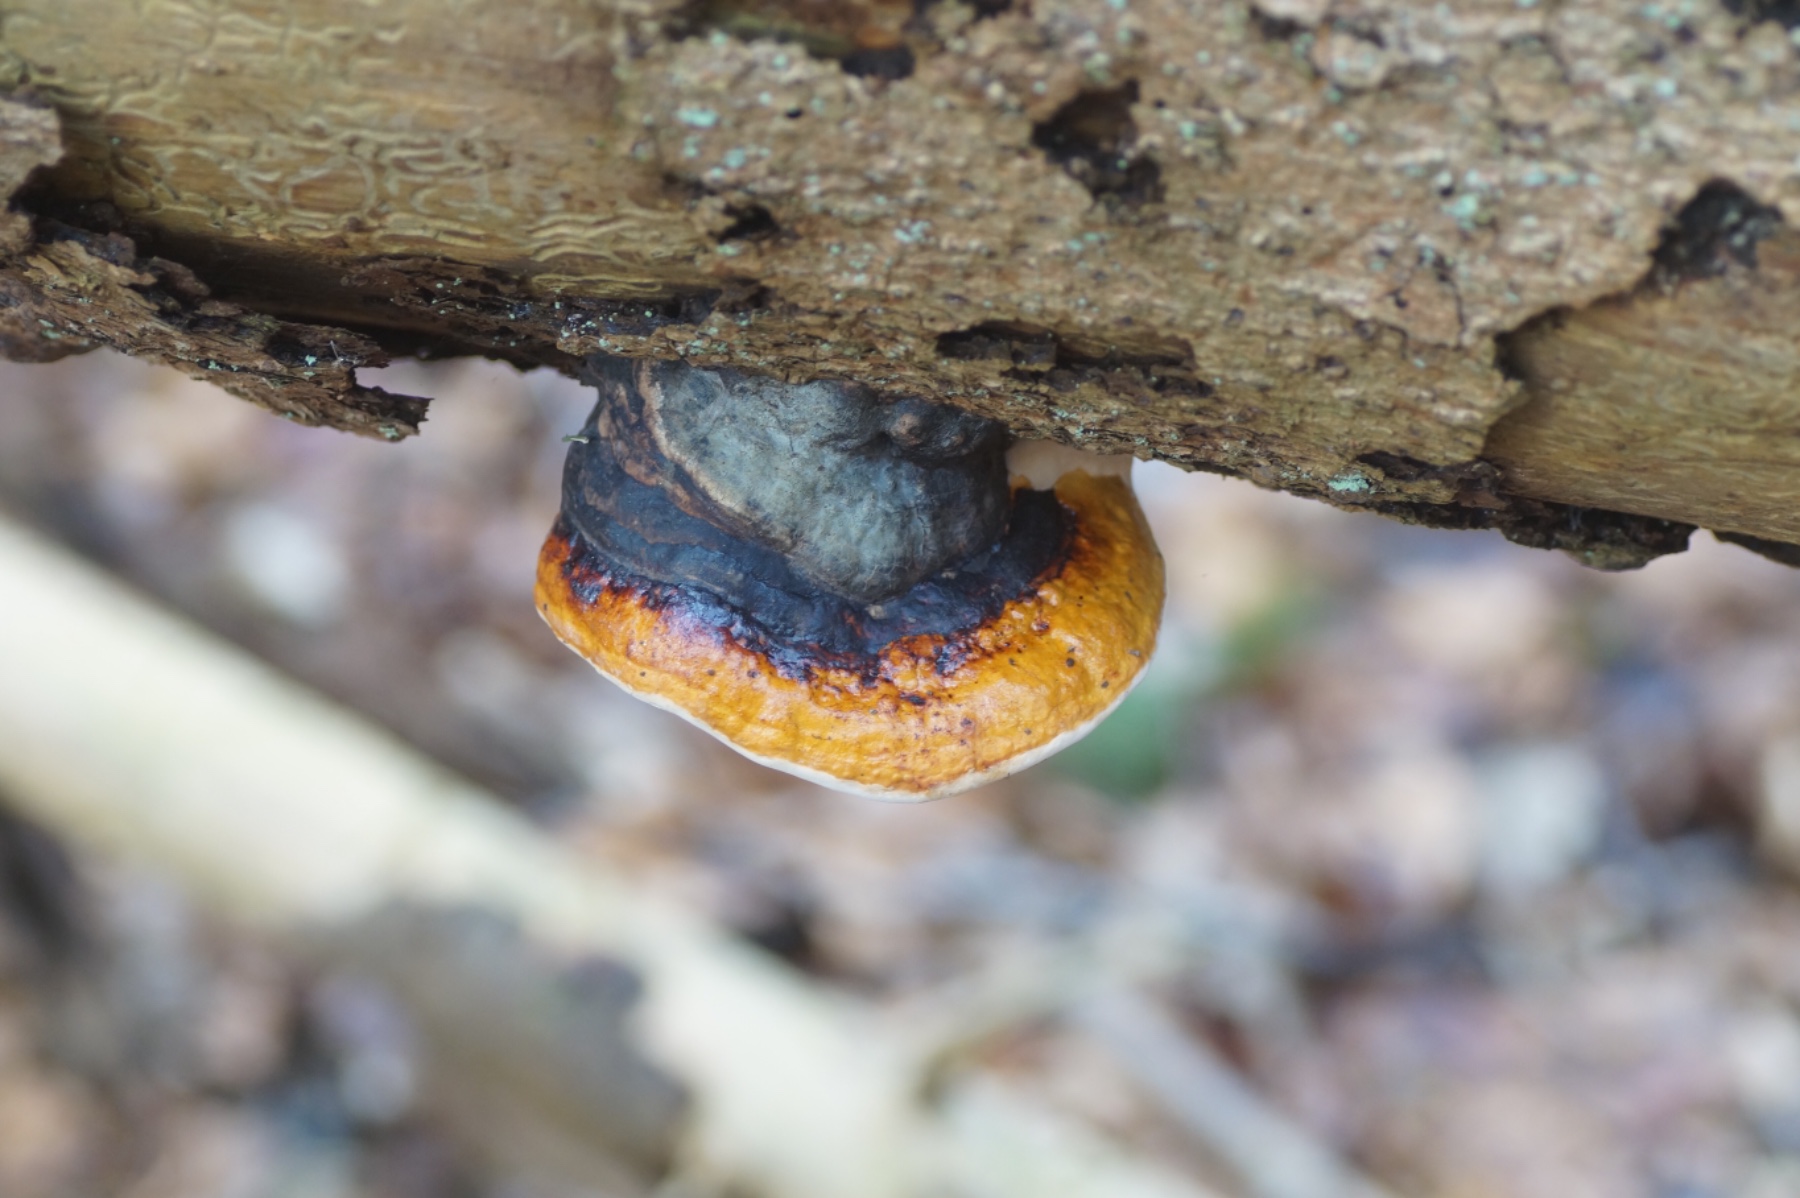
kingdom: Fungi
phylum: Basidiomycota
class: Agaricomycetes
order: Polyporales
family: Fomitopsidaceae
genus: Fomitopsis
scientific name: Fomitopsis pinicola
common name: randbæltet hovporesvamp
